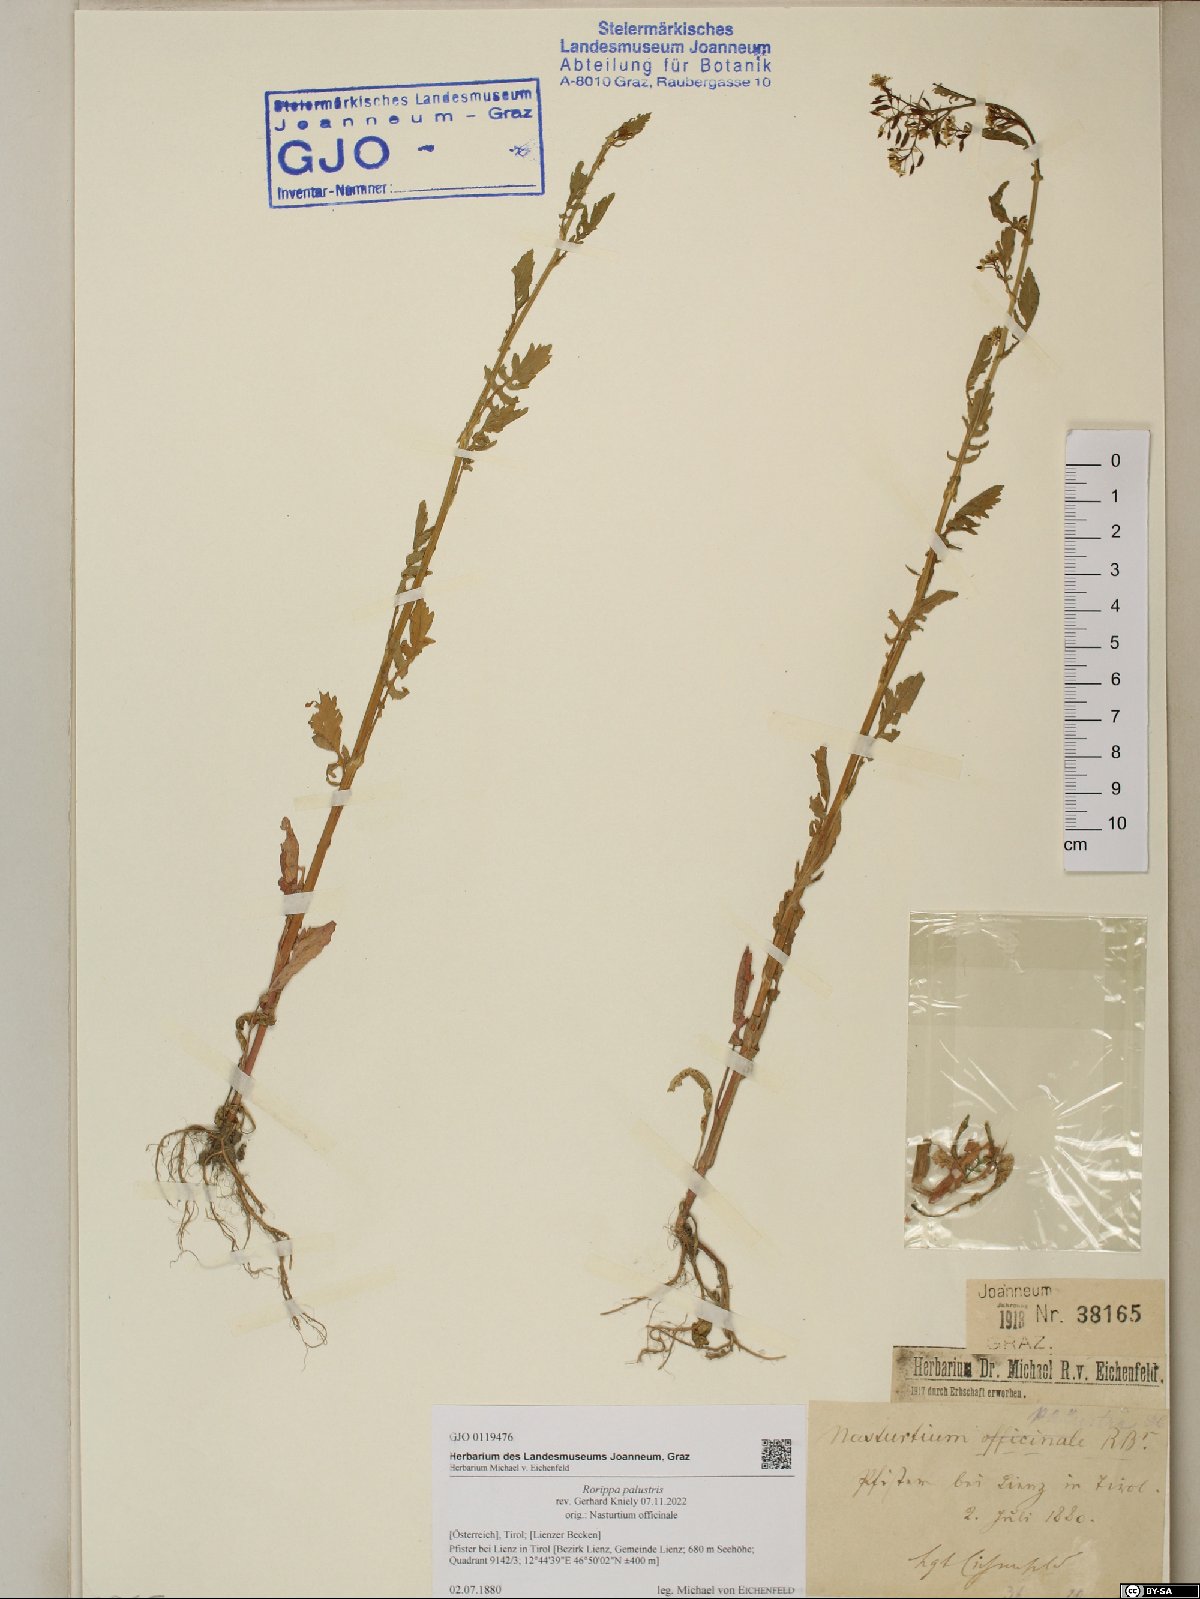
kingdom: Plantae
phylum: Tracheophyta
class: Magnoliopsida
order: Brassicales
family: Brassicaceae
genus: Rorippa
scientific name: Rorippa palustris
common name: Marsh yellow-cress
